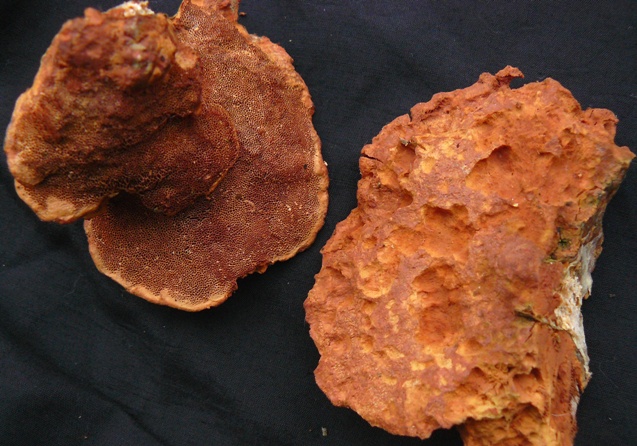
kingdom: Fungi
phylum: Basidiomycota
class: Agaricomycetes
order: Polyporales
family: Phanerochaetaceae
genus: Hapalopilus
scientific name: Hapalopilus rutilans
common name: rødlig okkerporesvamp
